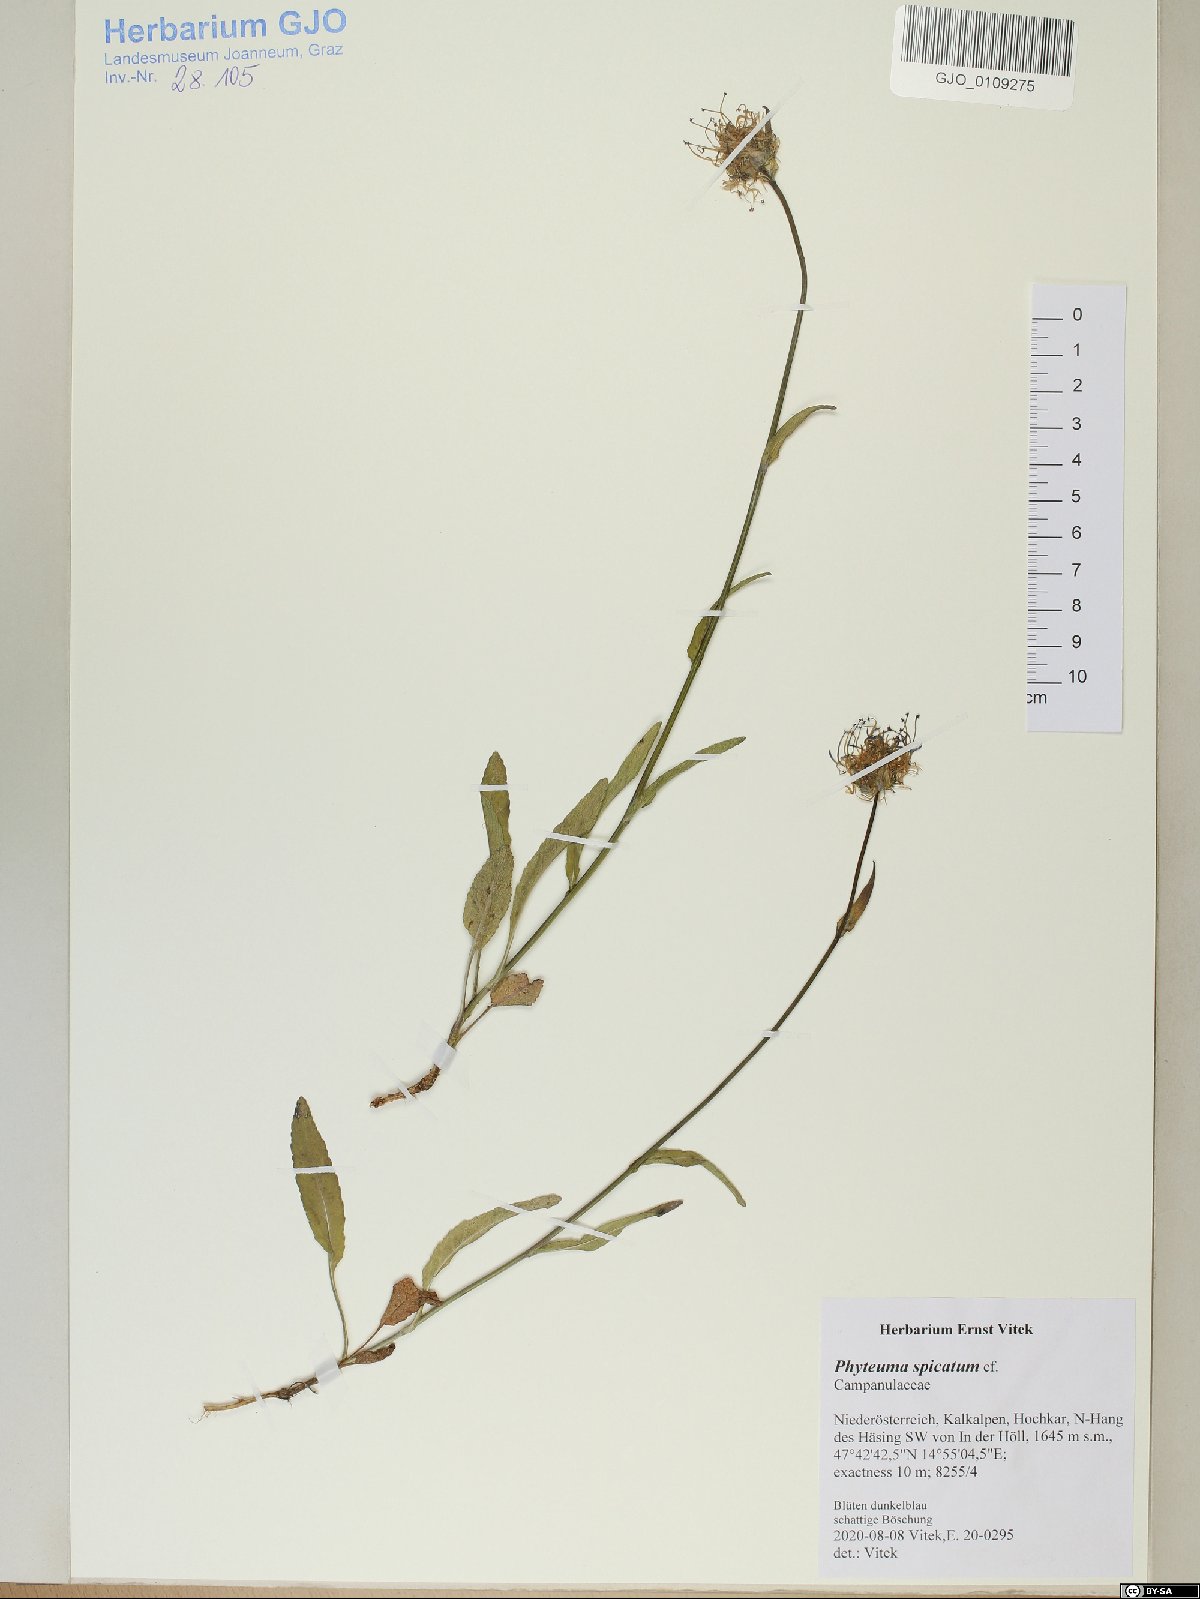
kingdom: Plantae
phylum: Tracheophyta
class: Magnoliopsida
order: Asterales
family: Campanulaceae
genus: Phyteuma
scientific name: Phyteuma orbiculare
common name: Round-headed rampion
